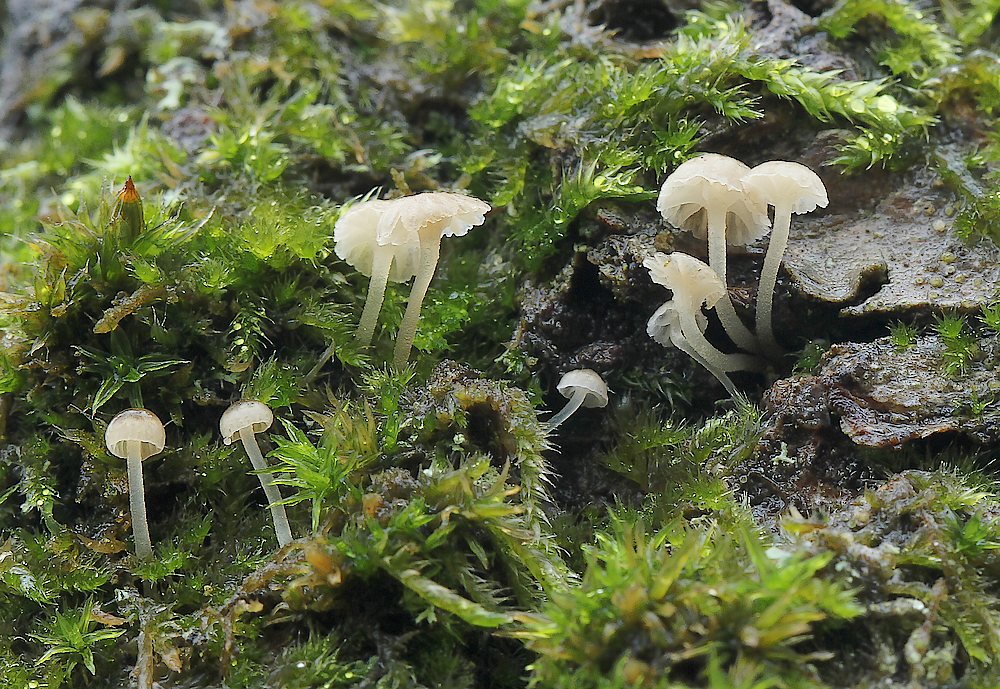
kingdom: Fungi
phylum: Basidiomycota
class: Agaricomycetes
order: Agaricales
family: Porotheleaceae
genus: Phloeomana
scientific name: Phloeomana speirea
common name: kvist-huesvamp
